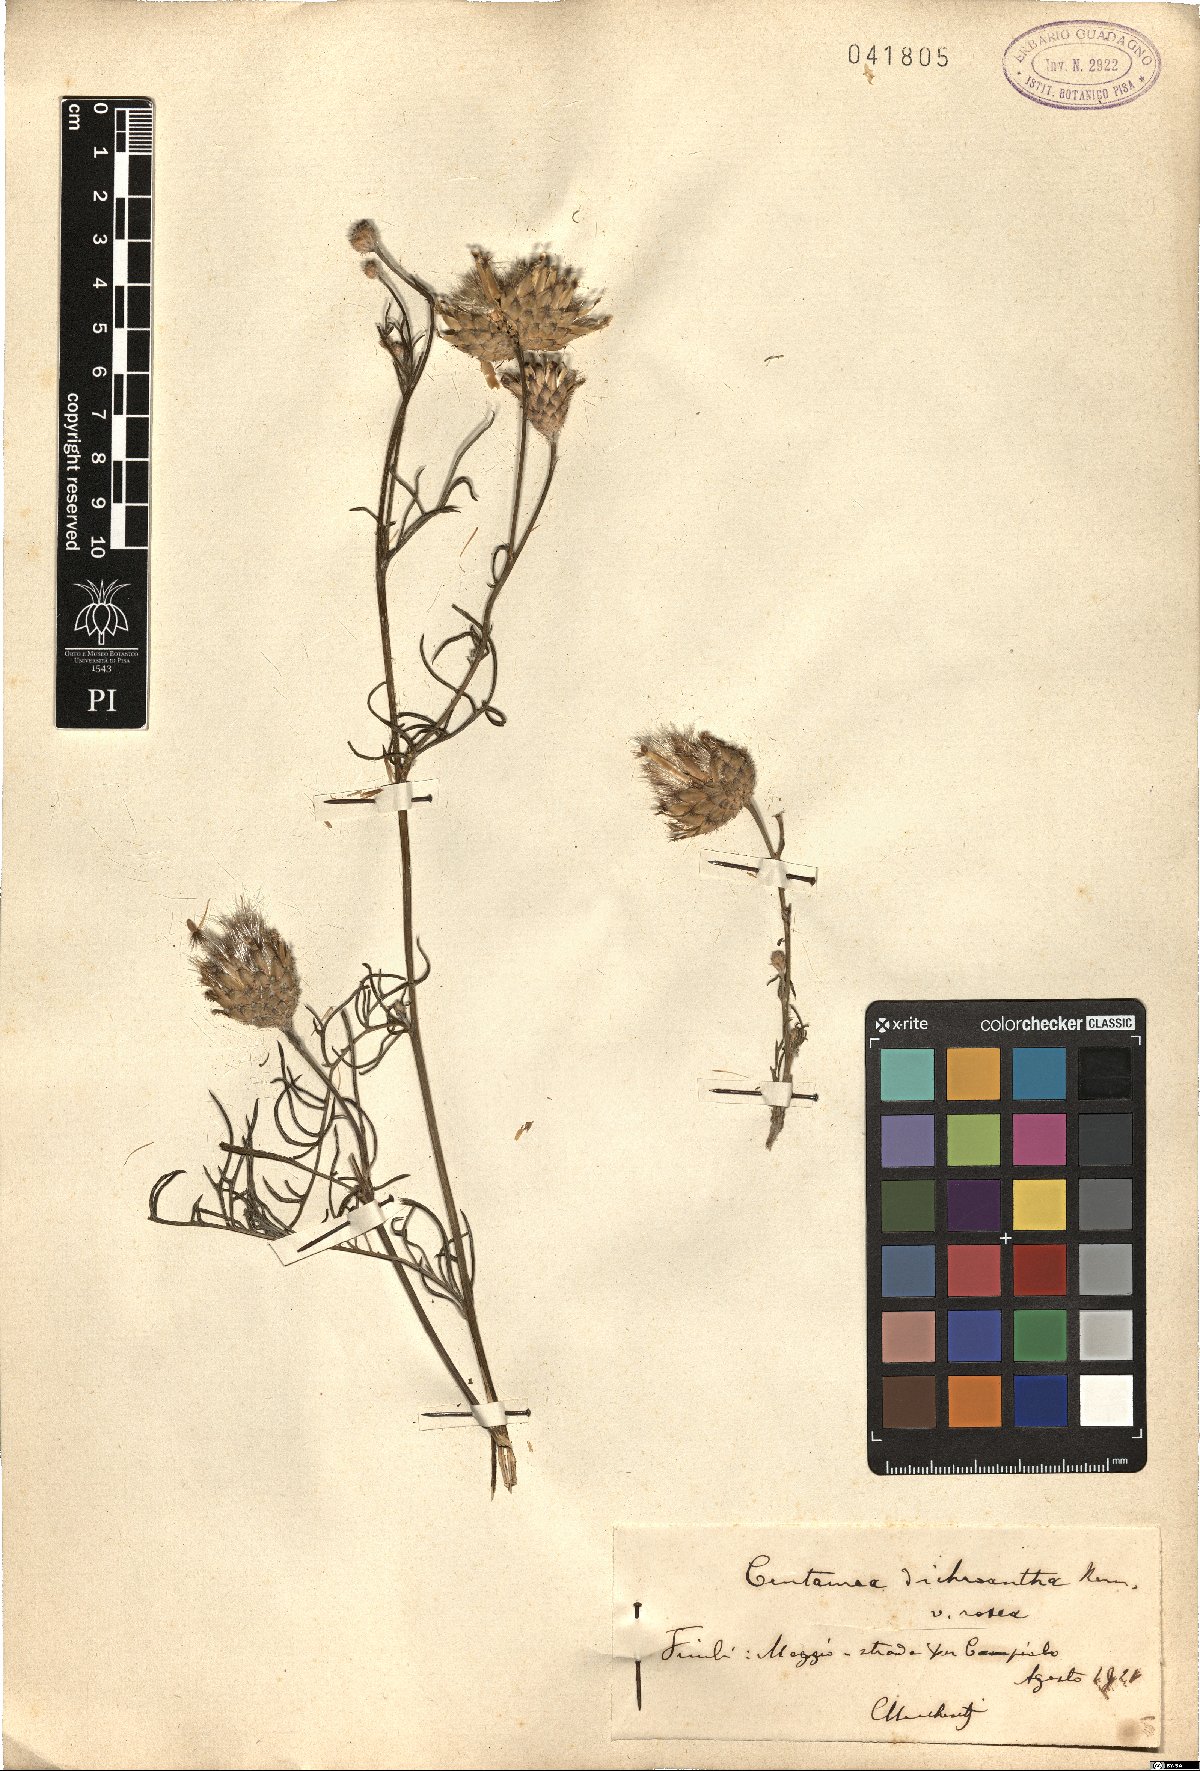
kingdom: Plantae
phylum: Tracheophyta
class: Magnoliopsida
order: Asterales
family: Asteraceae
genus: Centaurea
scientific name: Centaurea dichroantha
